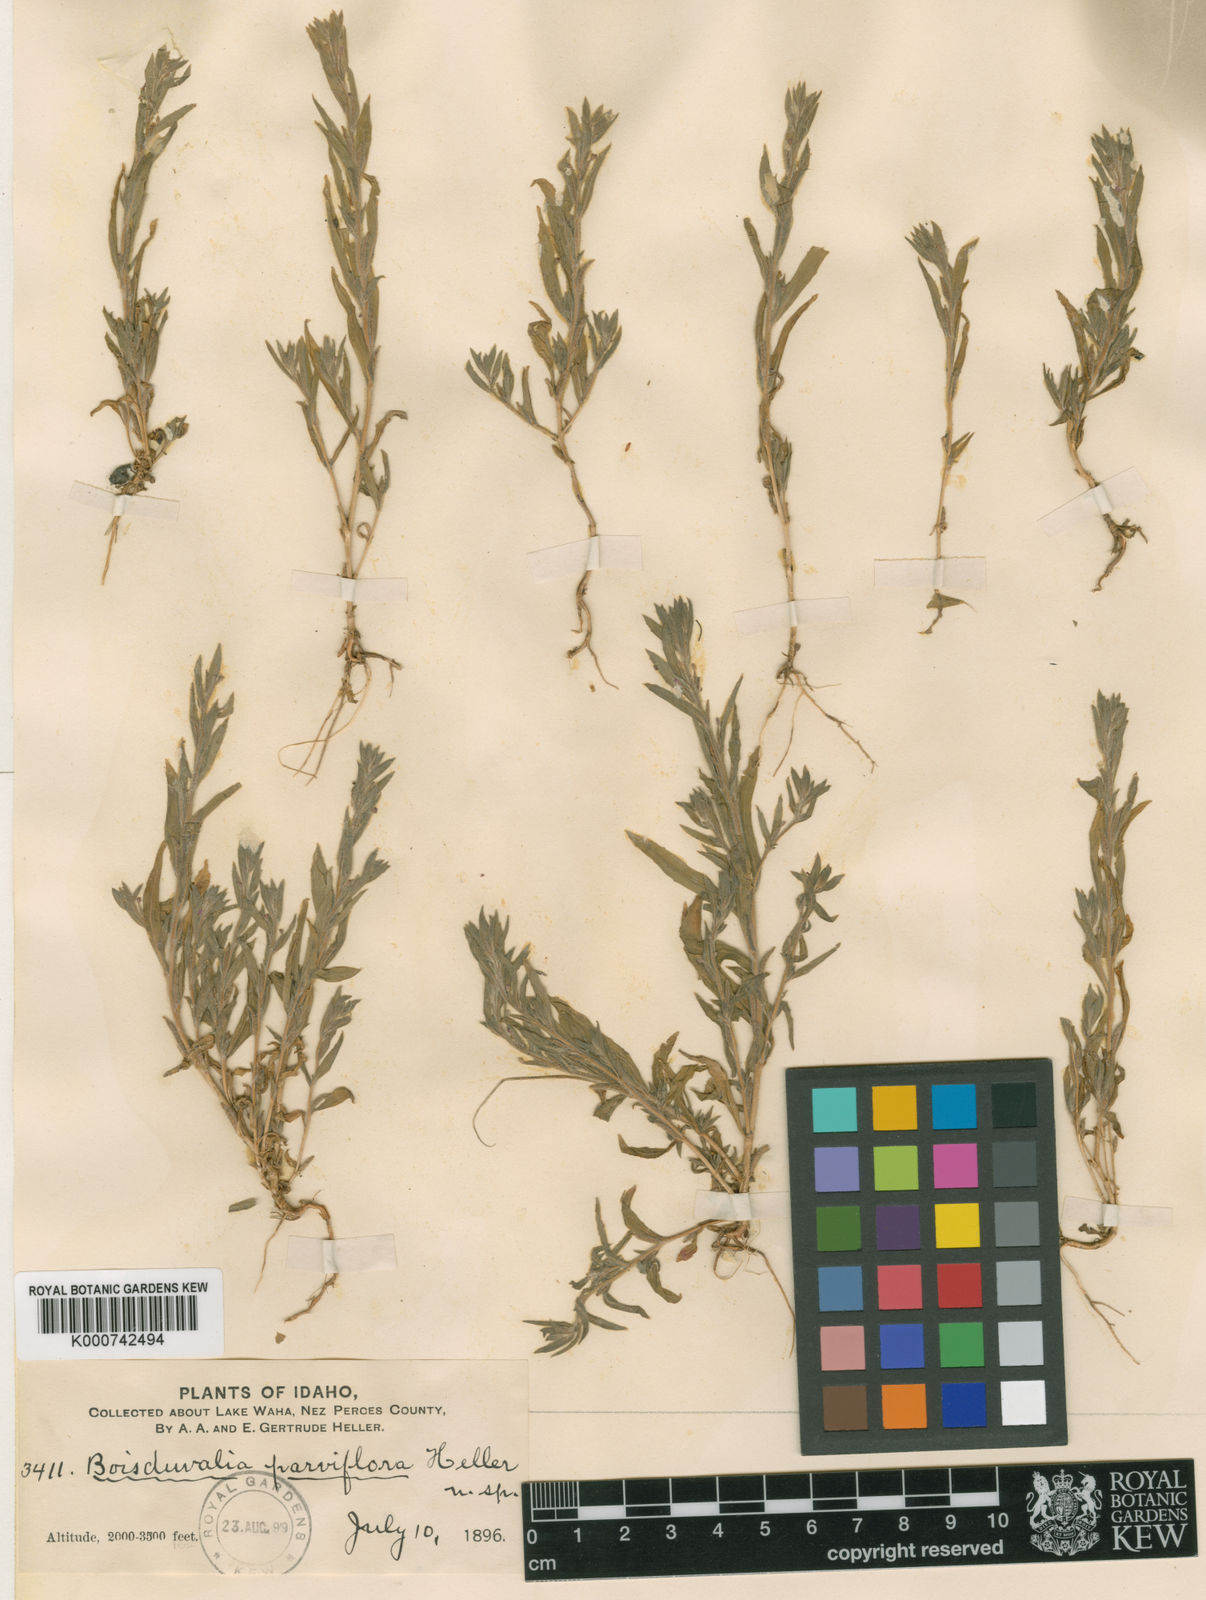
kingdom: Plantae
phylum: Tracheophyta
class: Magnoliopsida
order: Myrtales
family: Onagraceae
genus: Epilobium
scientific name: Epilobium torreyi
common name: Torrey's willowherb
